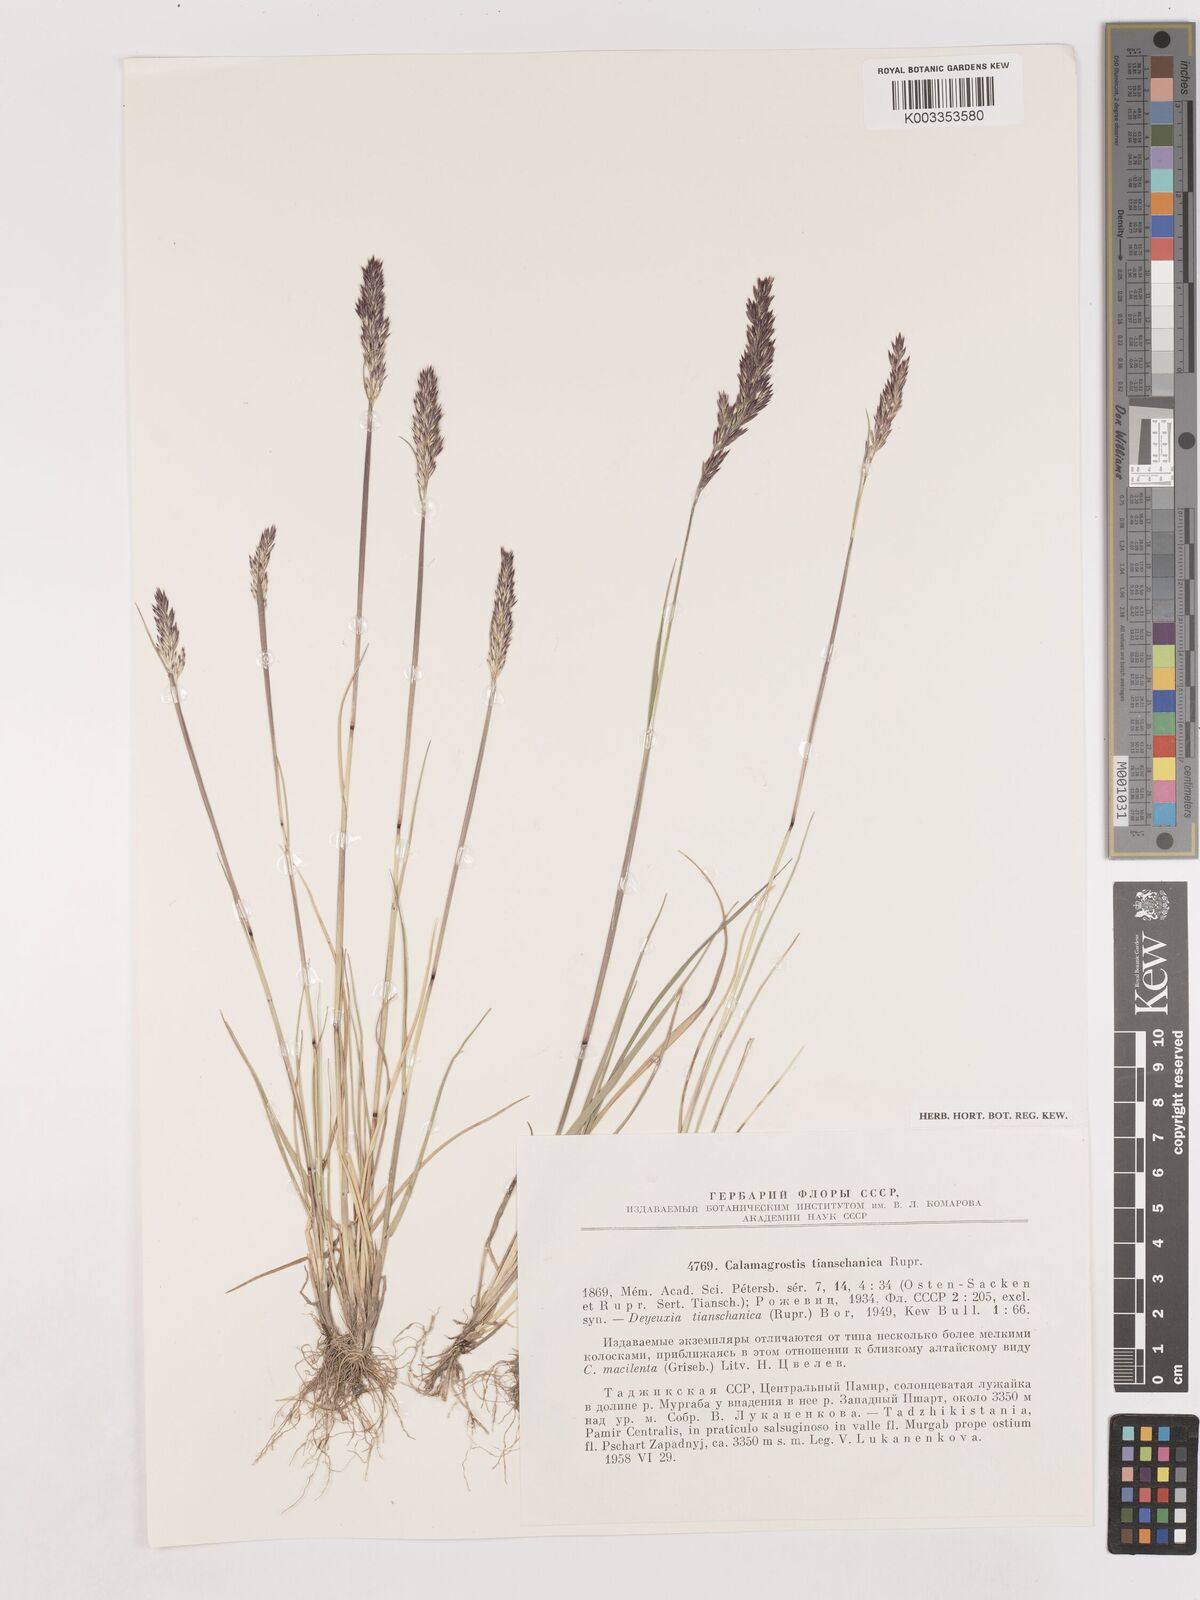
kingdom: Plantae
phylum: Tracheophyta
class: Liliopsida
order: Poales
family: Poaceae
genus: Calamagrostis
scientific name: Calamagrostis tianschanica
